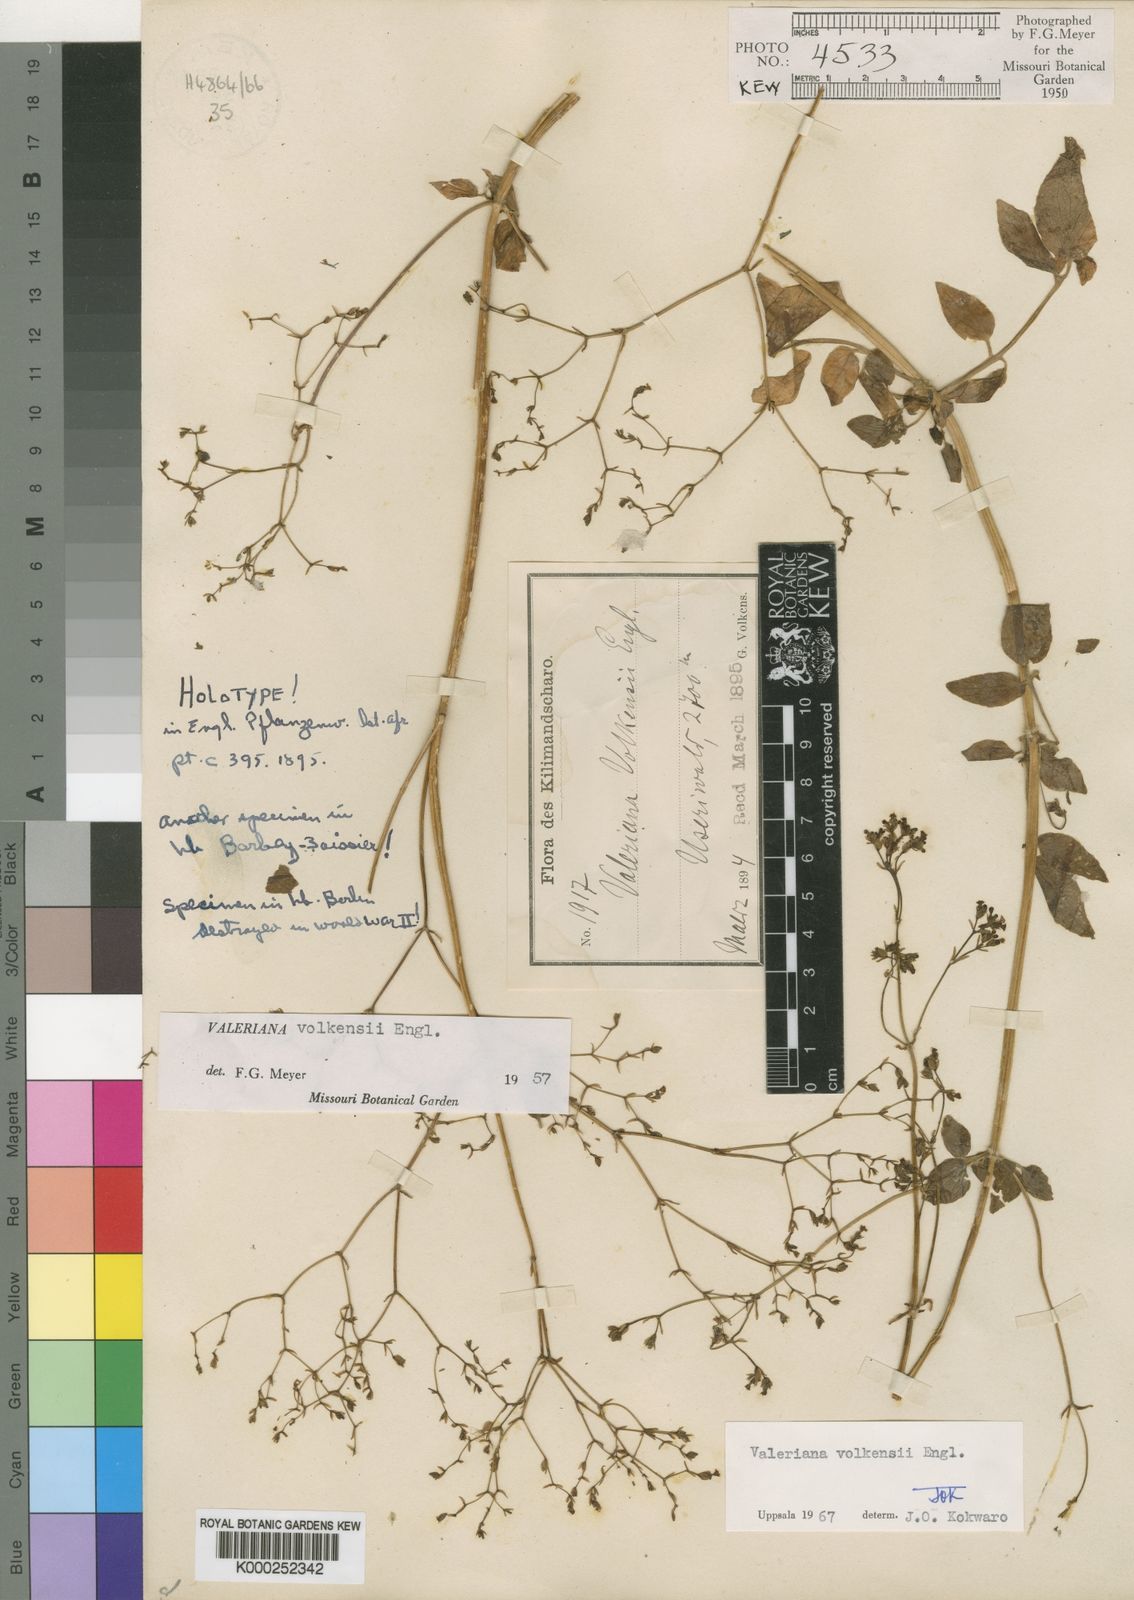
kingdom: Plantae
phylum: Tracheophyta
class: Magnoliopsida
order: Dipsacales
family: Caprifoliaceae
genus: Valeriana
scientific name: Valeriana volkensii
